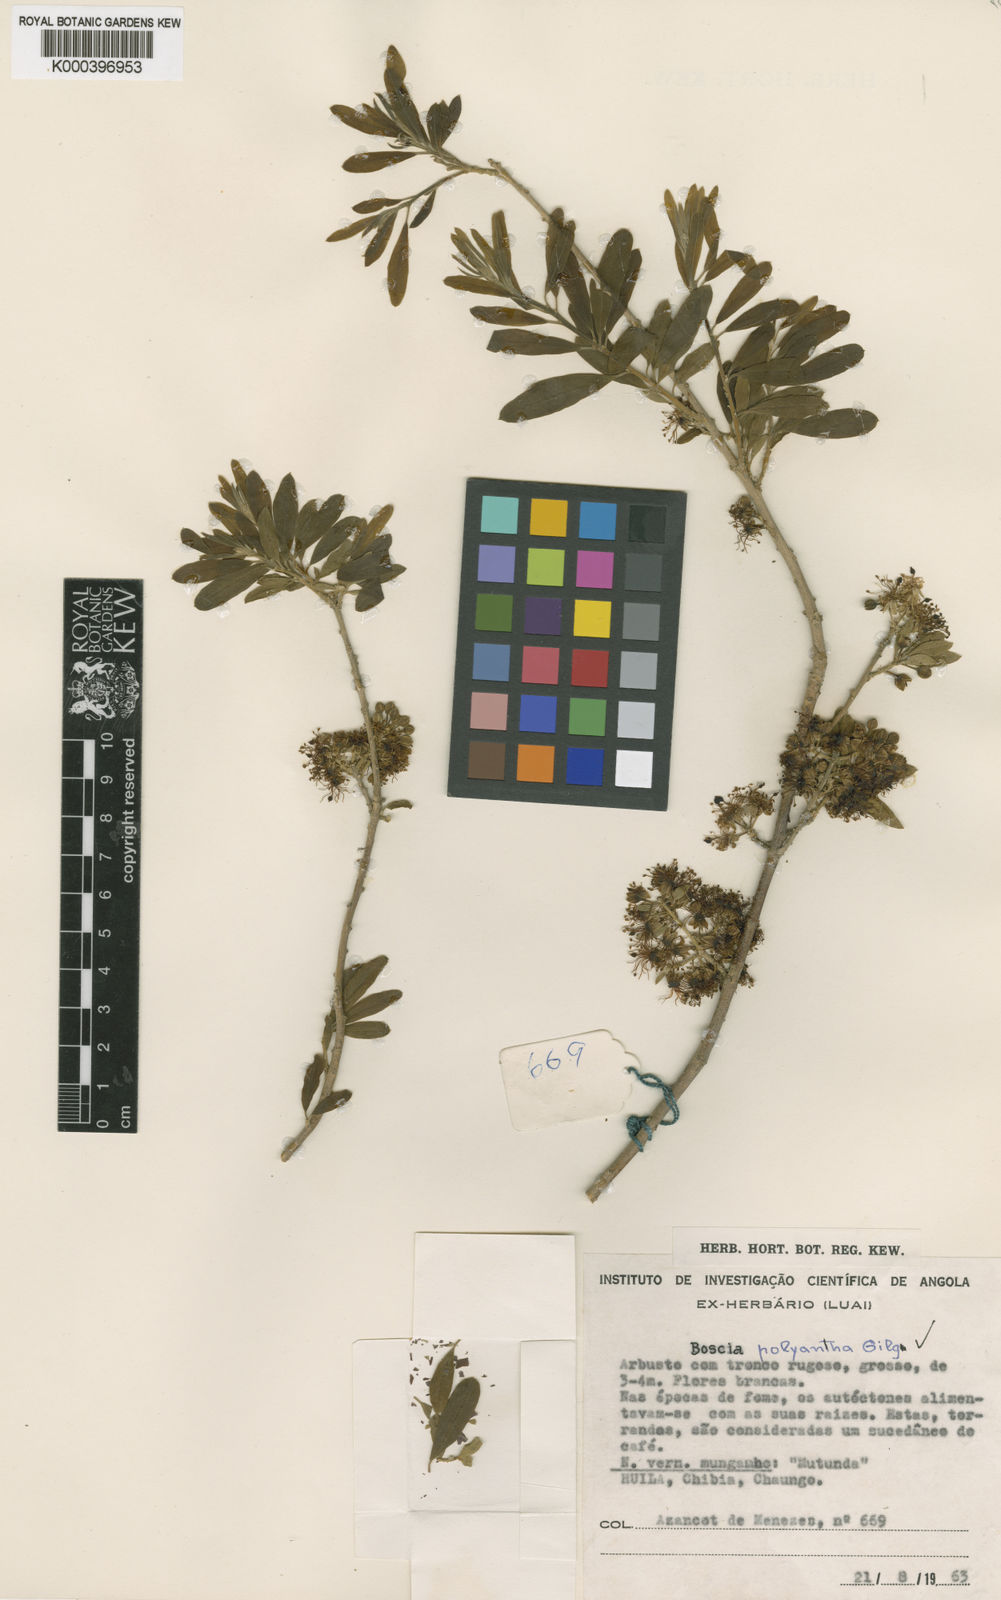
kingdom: Plantae
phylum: Tracheophyta
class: Magnoliopsida
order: Brassicales
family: Capparaceae
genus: Boscia
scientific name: Boscia polyantha
